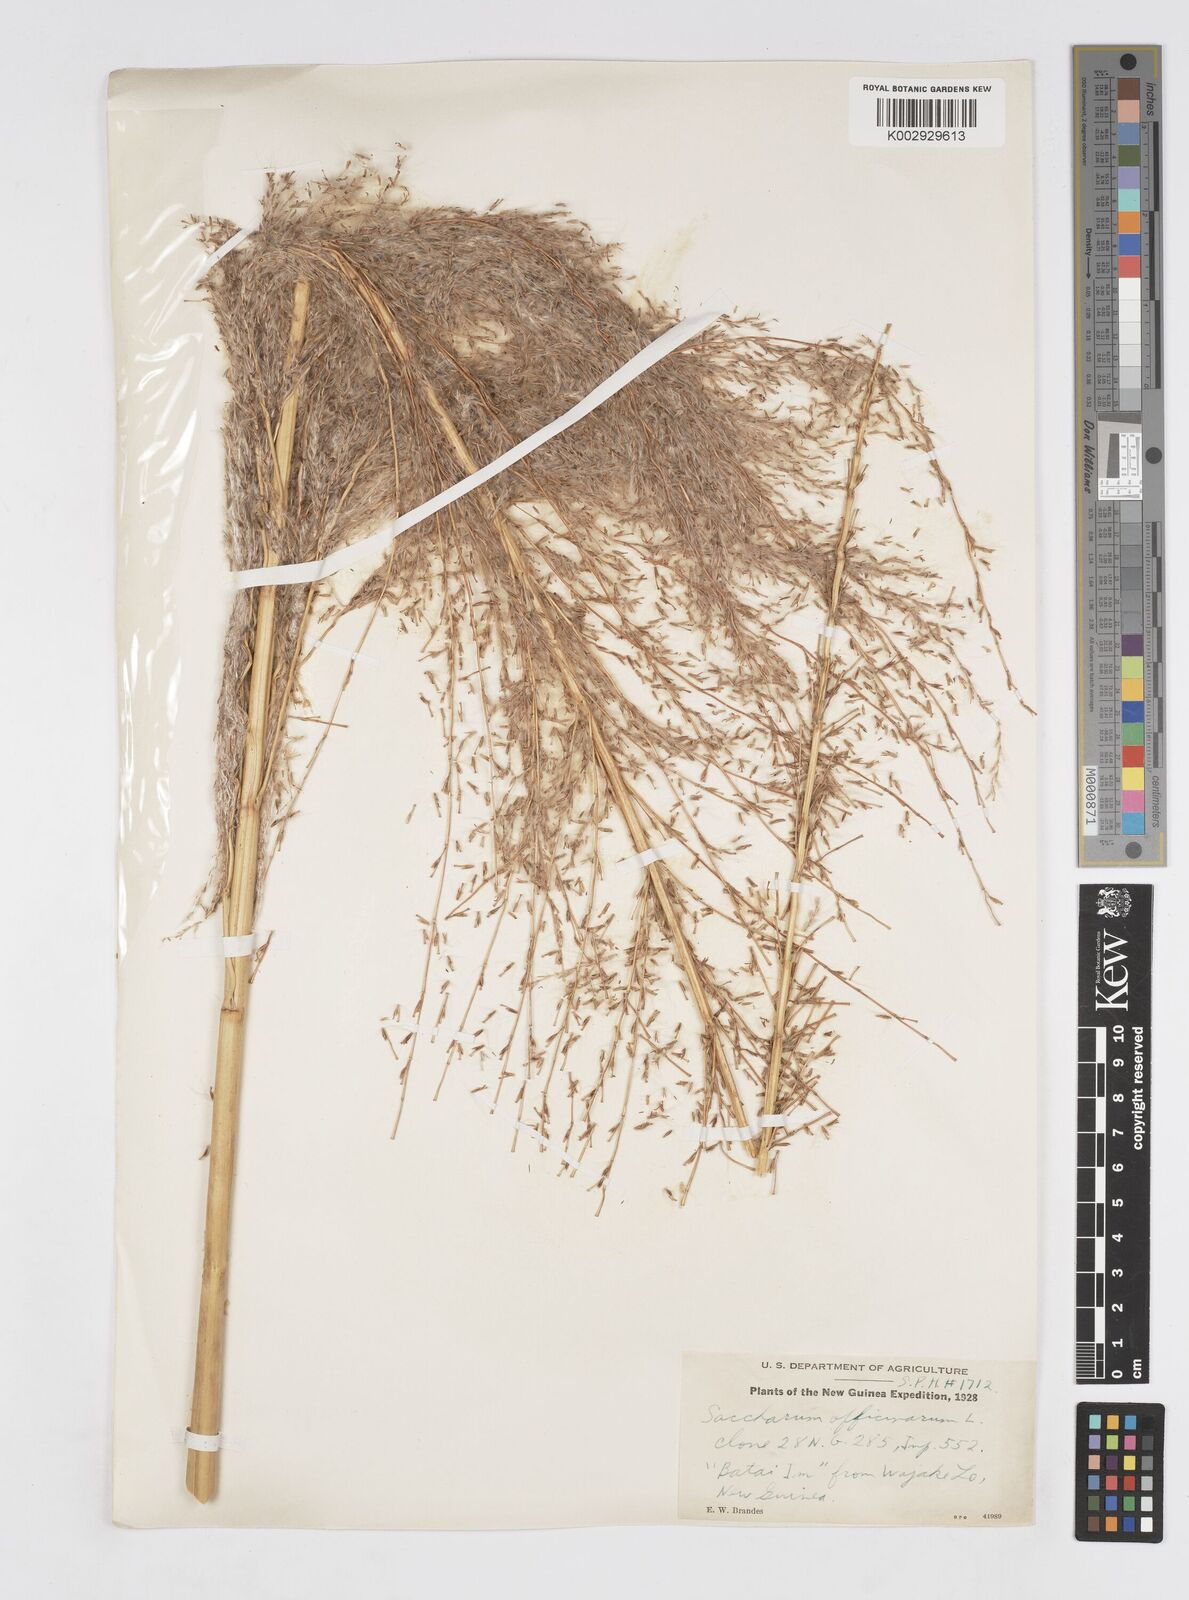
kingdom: Plantae
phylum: Tracheophyta
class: Liliopsida
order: Poales
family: Poaceae
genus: Saccharum
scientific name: Saccharum officinarum
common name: Sugarcane
